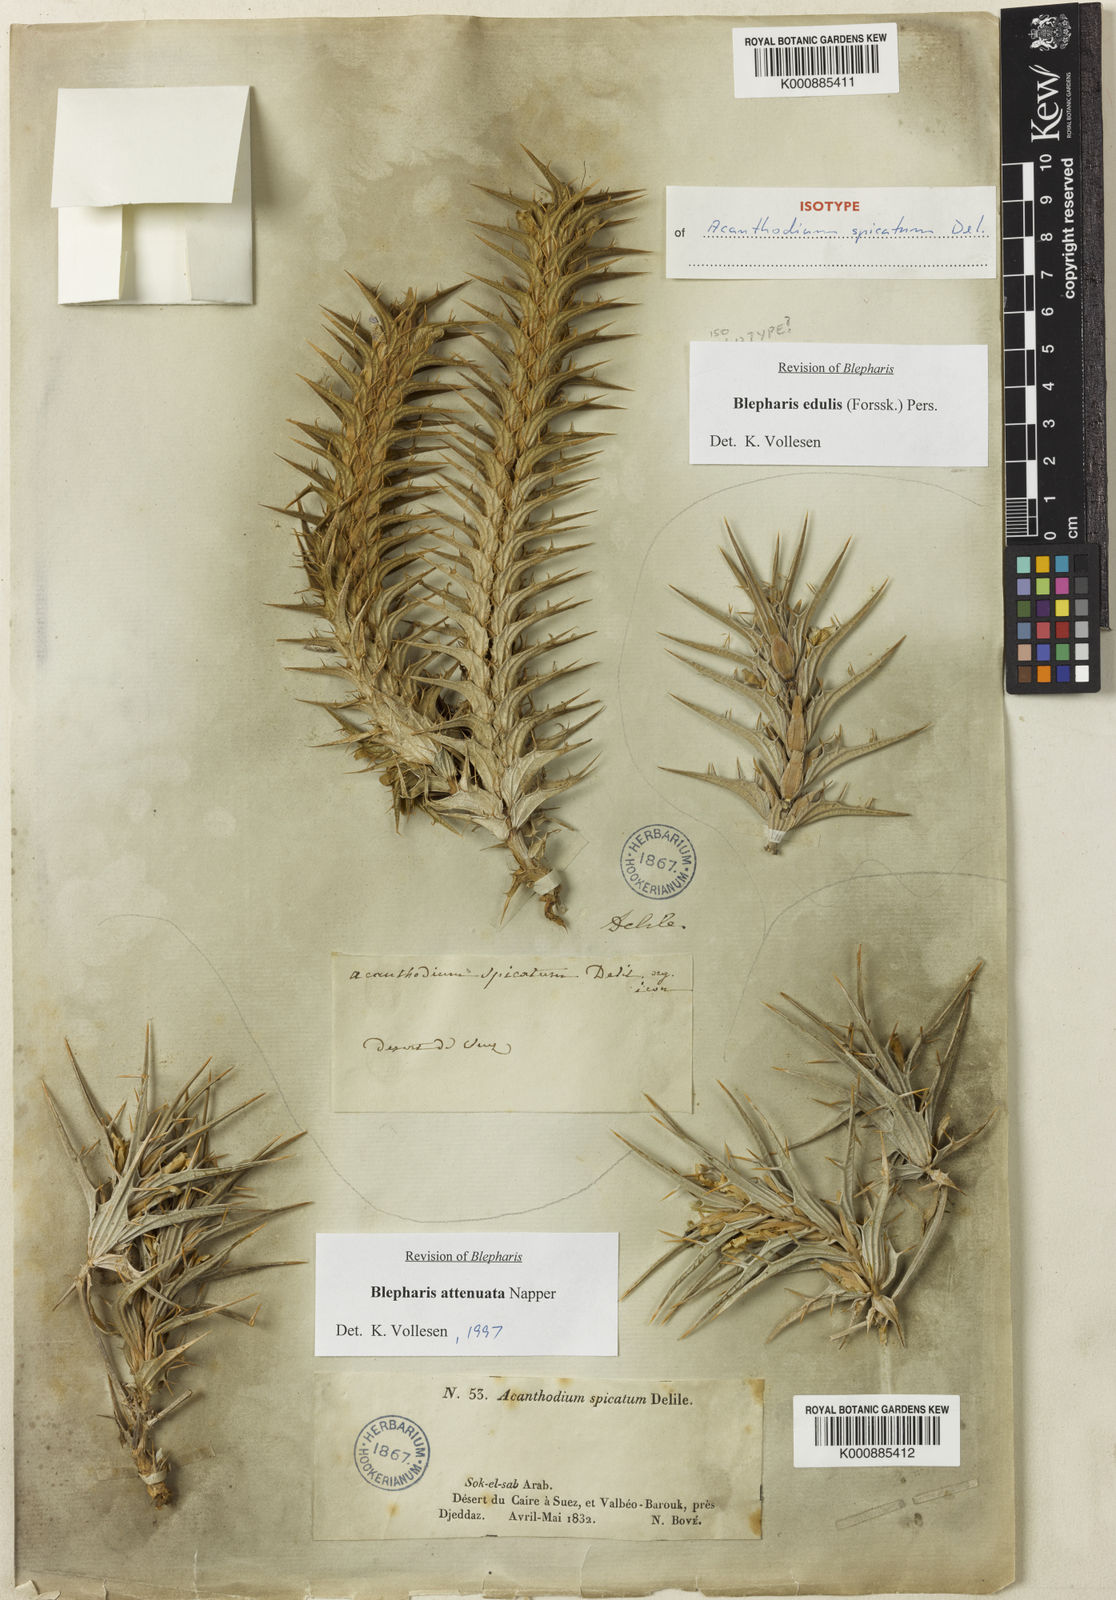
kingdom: Plantae
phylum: Tracheophyta
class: Magnoliopsida
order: Lamiales
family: Acanthaceae
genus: Blepharis
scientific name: Blepharis edulis
